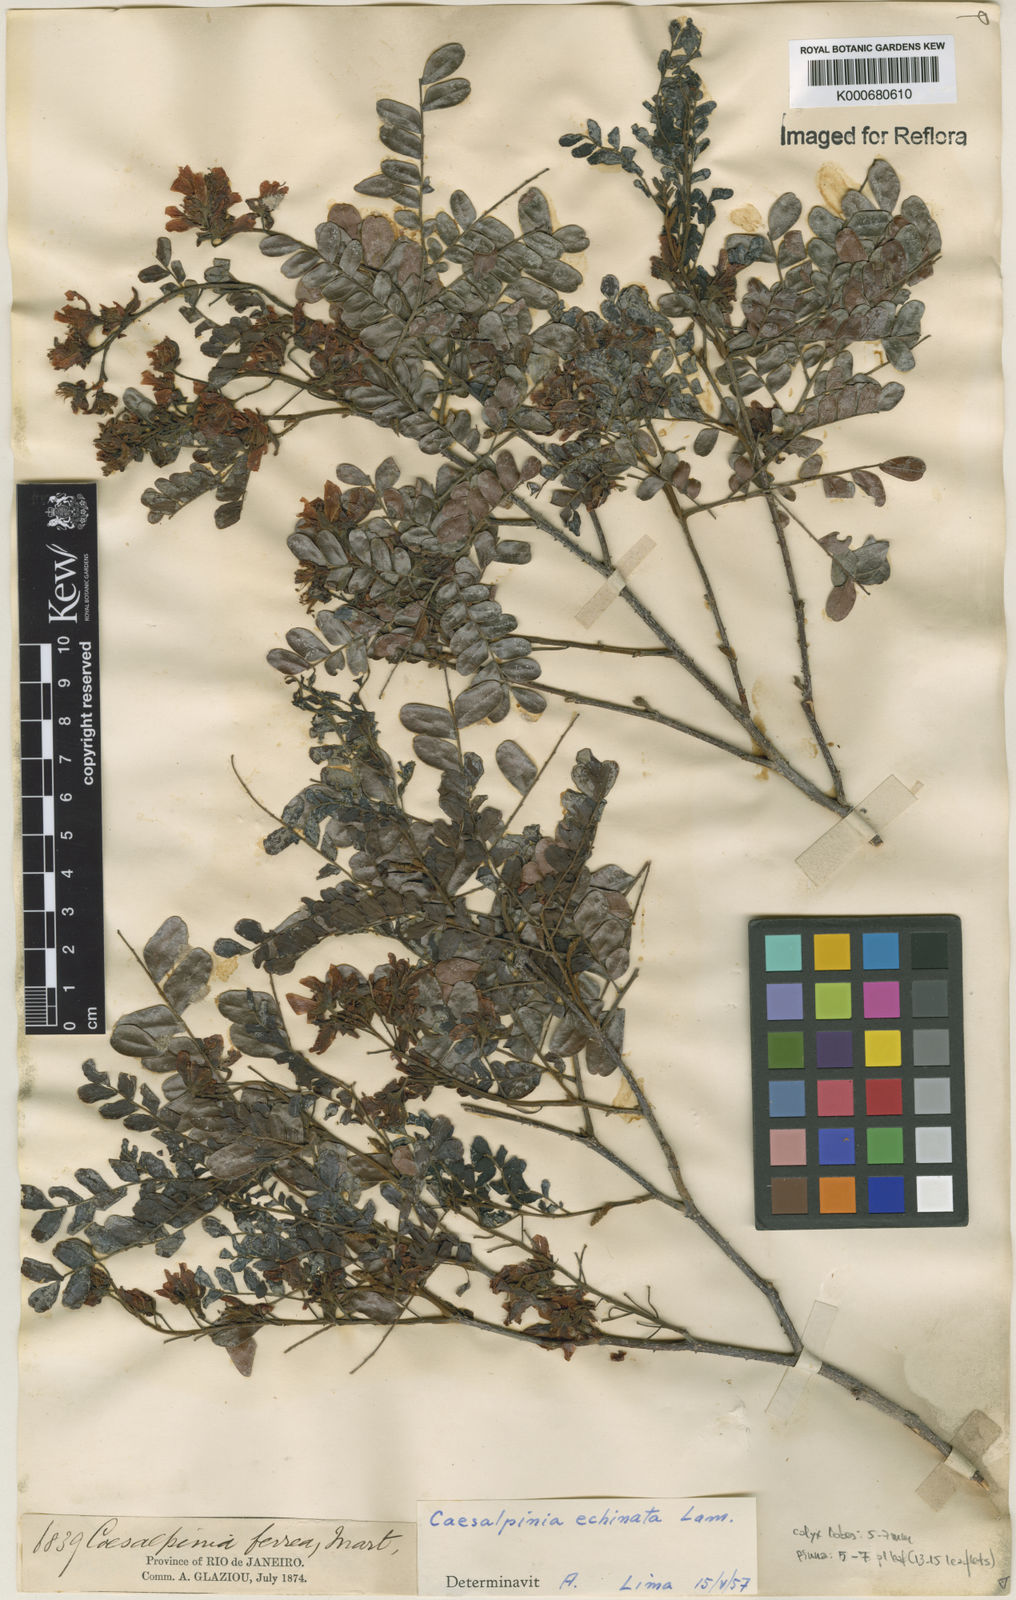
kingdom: Plantae
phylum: Tracheophyta
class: Magnoliopsida
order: Fabales
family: Fabaceae
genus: Paubrasilia
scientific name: Paubrasilia echinata
